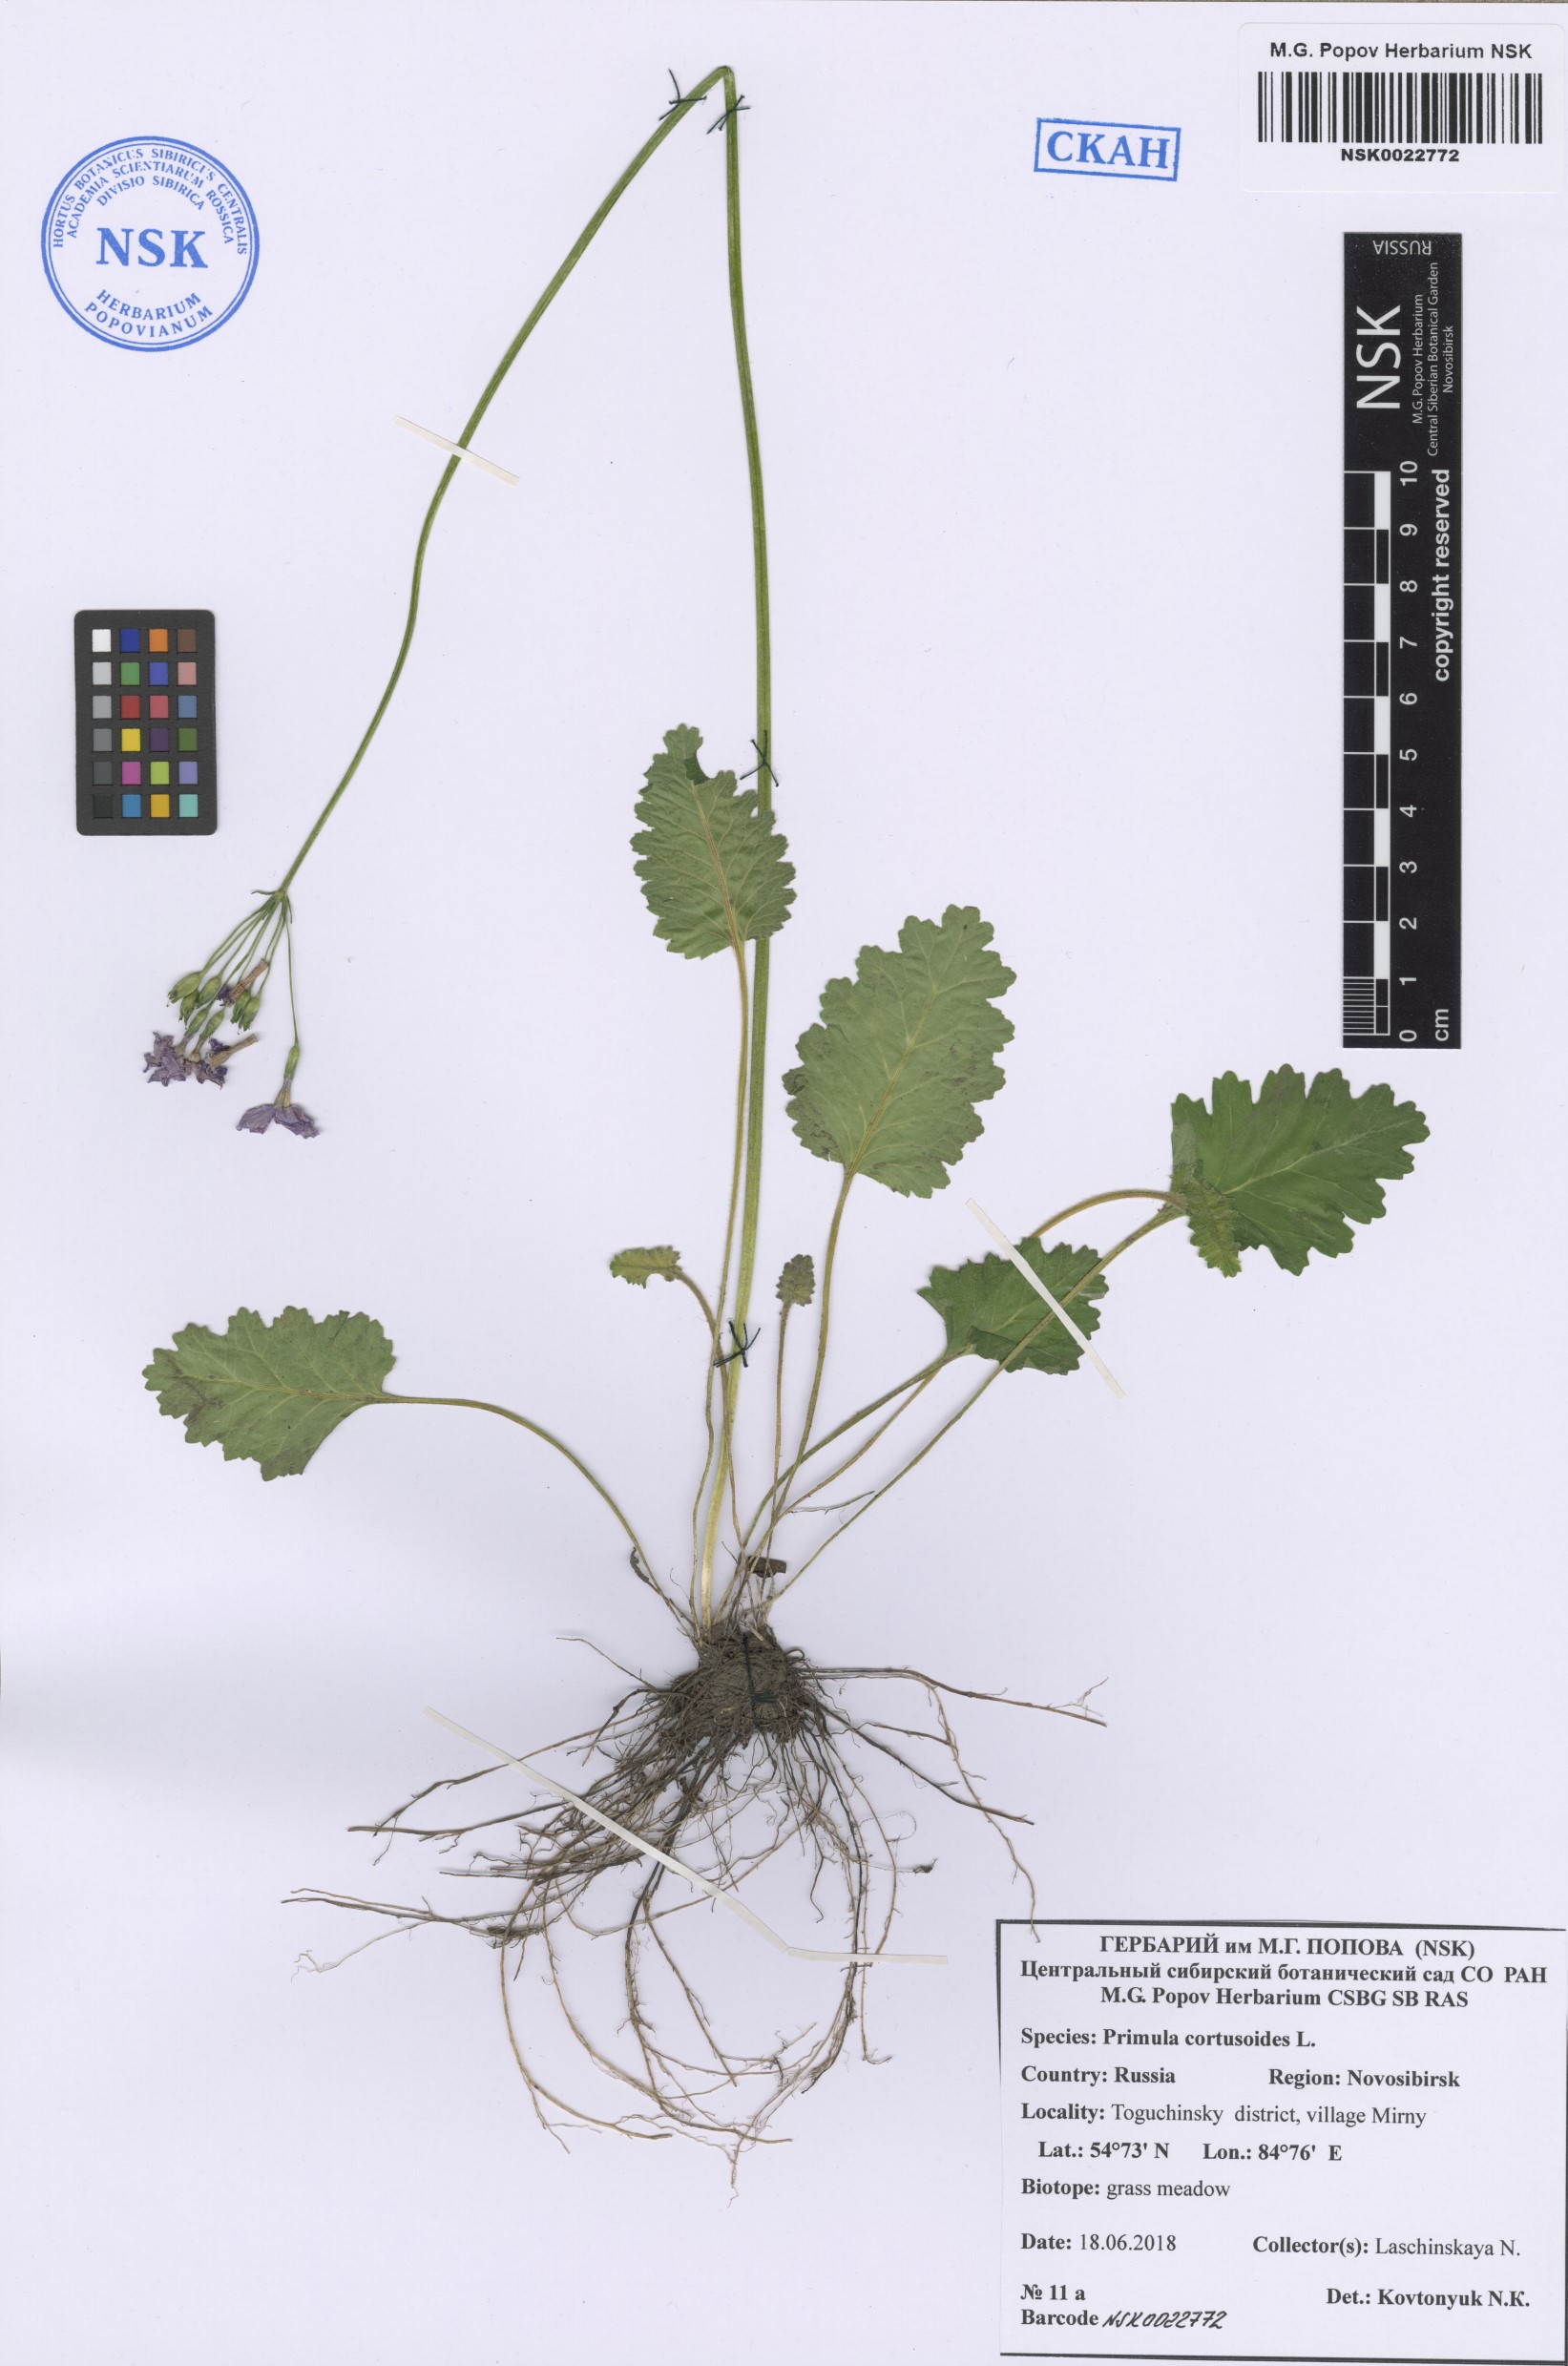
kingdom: Plantae
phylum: Tracheophyta
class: Magnoliopsida
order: Ericales
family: Primulaceae
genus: Primula
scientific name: Primula cortusoides
